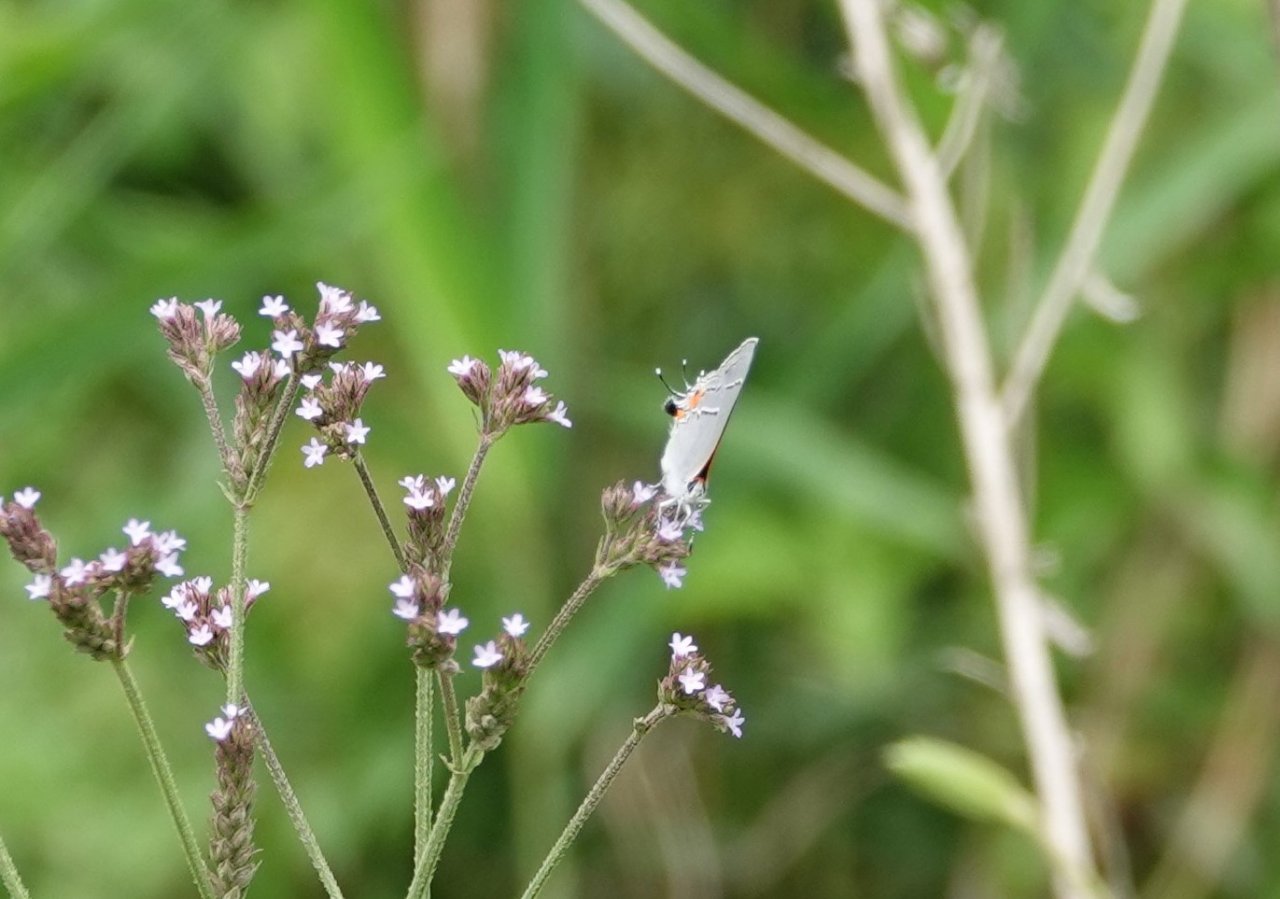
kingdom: Animalia
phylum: Arthropoda
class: Insecta
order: Lepidoptera
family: Lycaenidae
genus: Strymon
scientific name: Strymon melinus
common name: Gray Hairstreak
